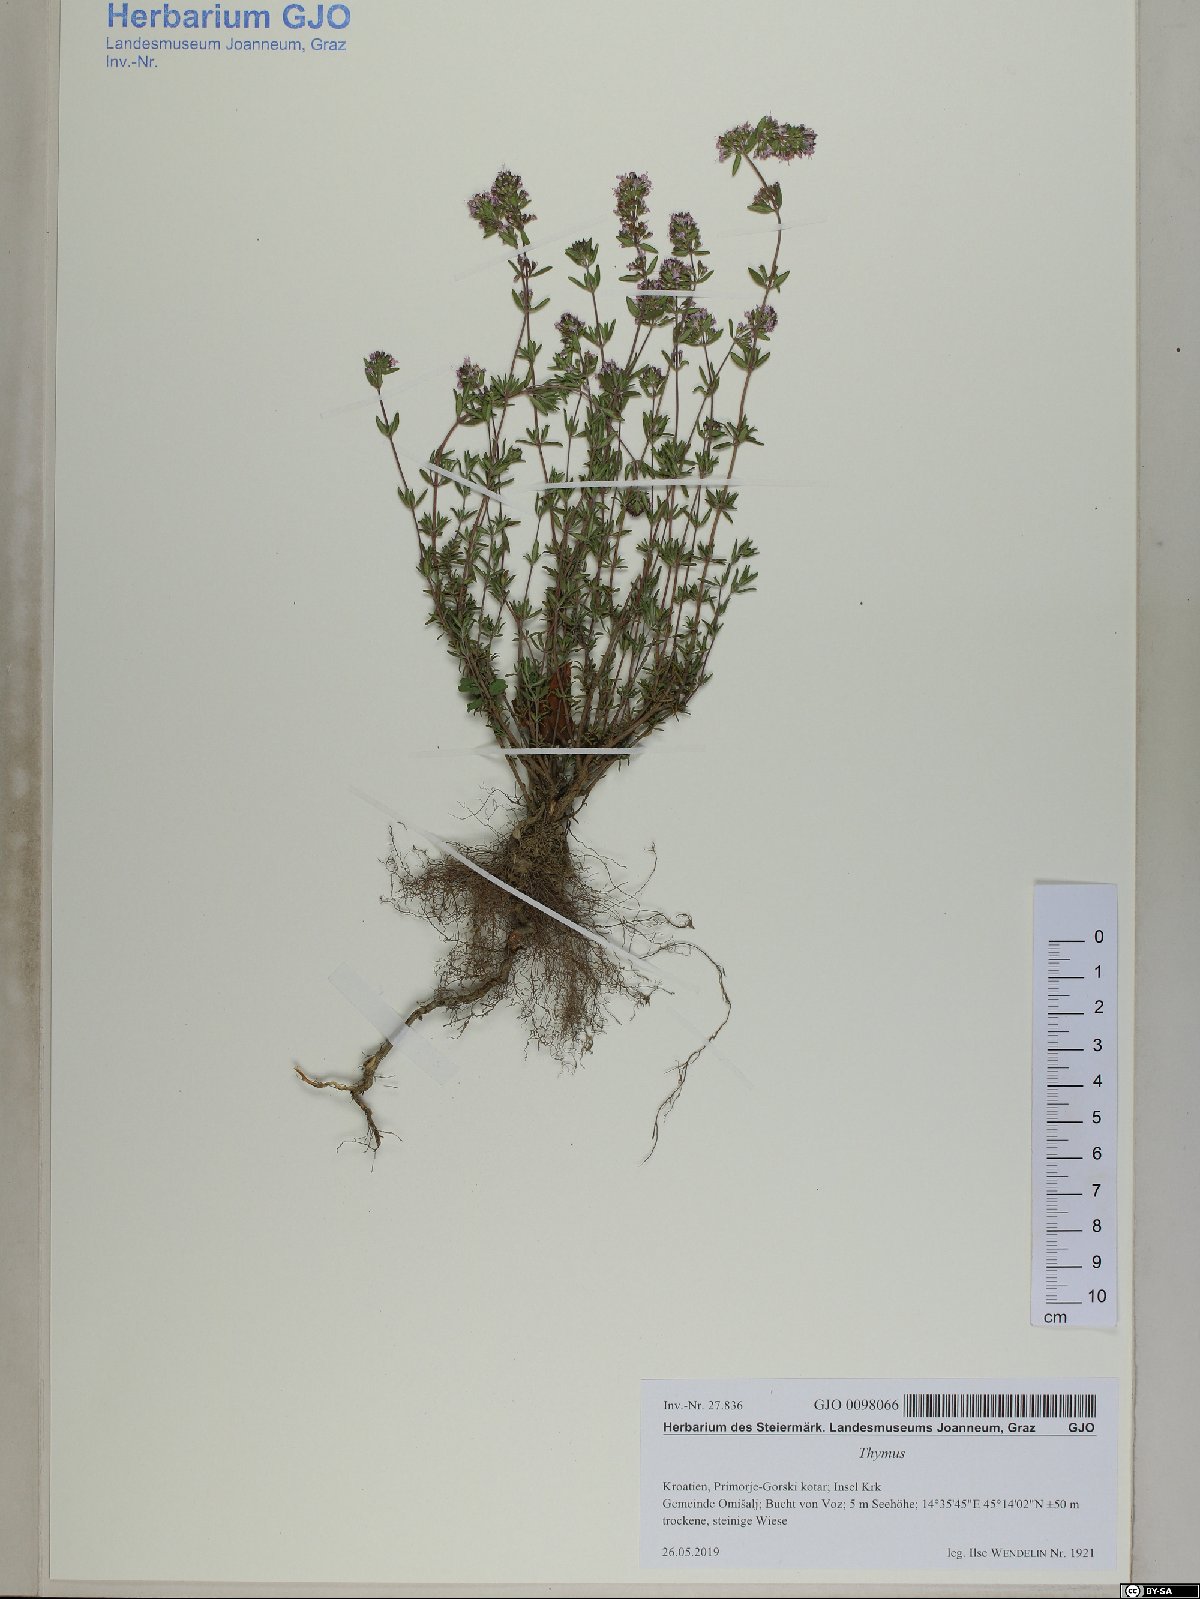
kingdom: Plantae
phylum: Tracheophyta
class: Magnoliopsida
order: Lamiales
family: Lamiaceae
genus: Thymus
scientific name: Thymus vulgaris
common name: Garden thyme
